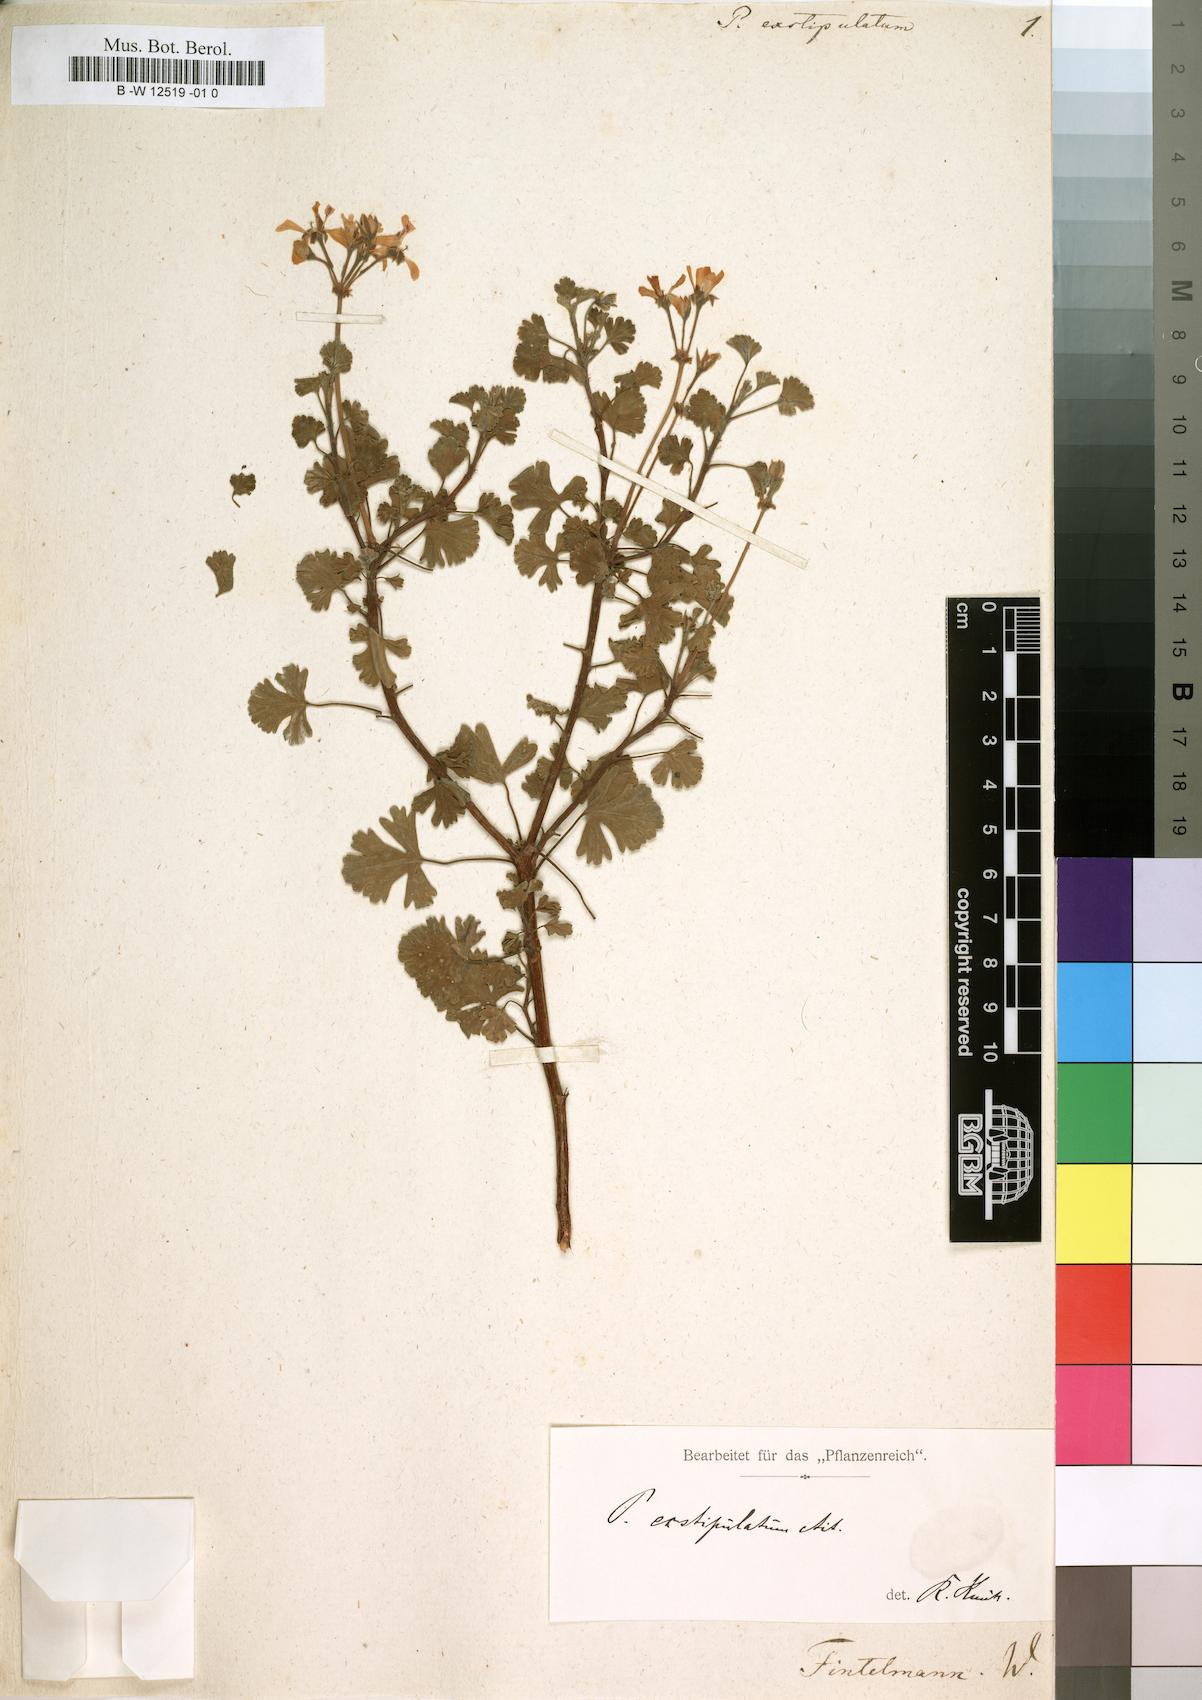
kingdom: Plantae
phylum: Tracheophyta
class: Magnoliopsida
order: Geraniales
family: Geraniaceae
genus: Pelargonium
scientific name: Pelargonium exstipulatum
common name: Soft-leaf trifid pelargonium
